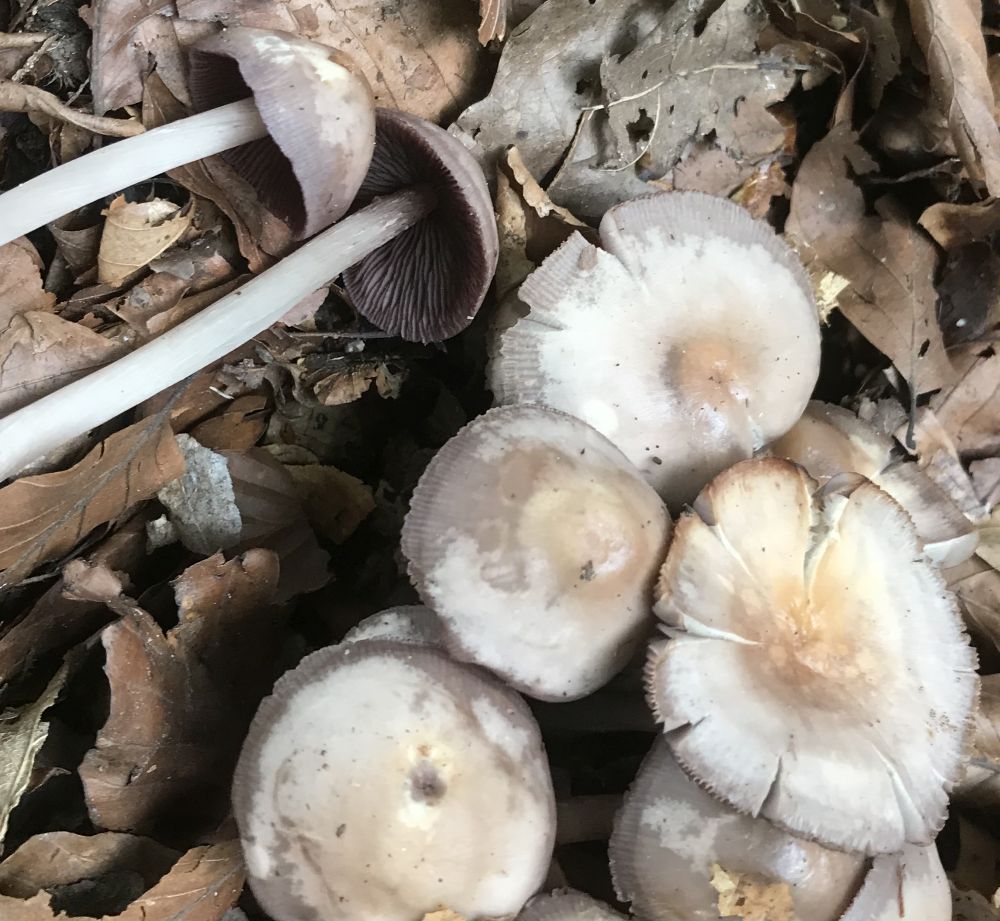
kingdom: Fungi
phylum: Basidiomycota
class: Agaricomycetes
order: Agaricales
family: Mycenaceae
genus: Mycena
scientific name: Mycena pelianthina
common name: mørkbladet huesvamp
